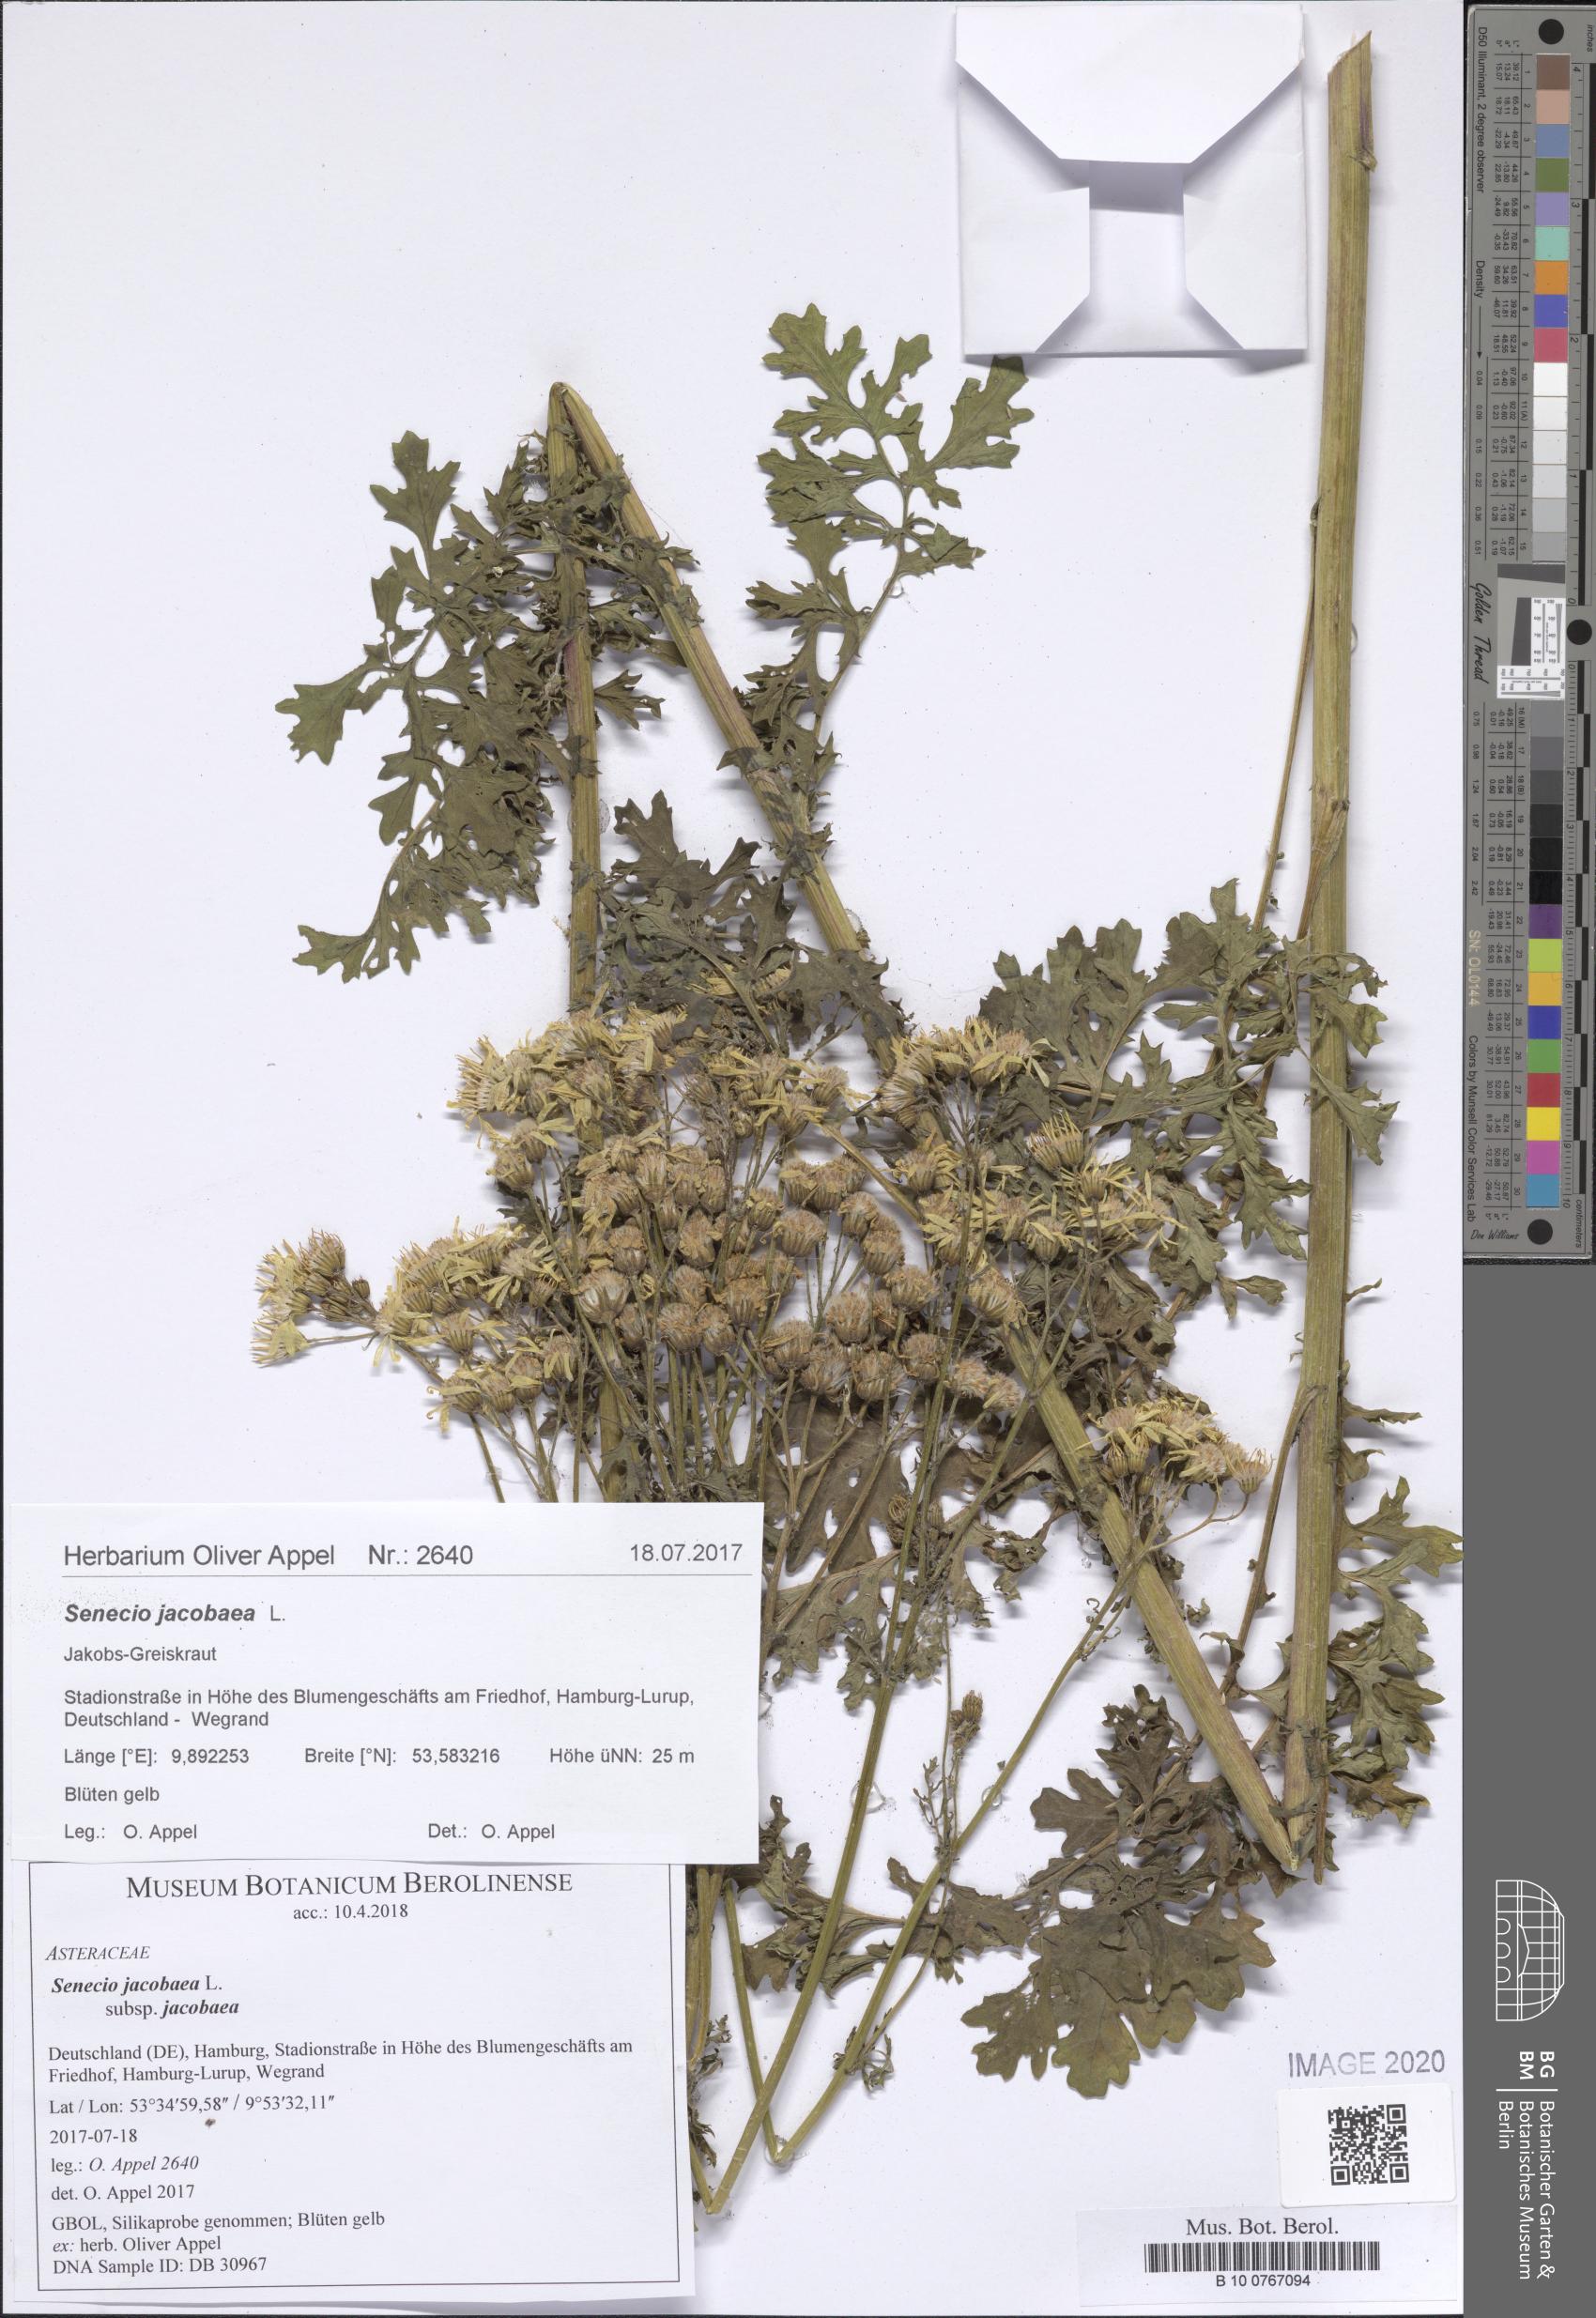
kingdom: Plantae
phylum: Tracheophyta
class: Magnoliopsida
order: Asterales
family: Asteraceae
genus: Jacobaea
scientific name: Jacobaea vulgaris
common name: Stinking willie
